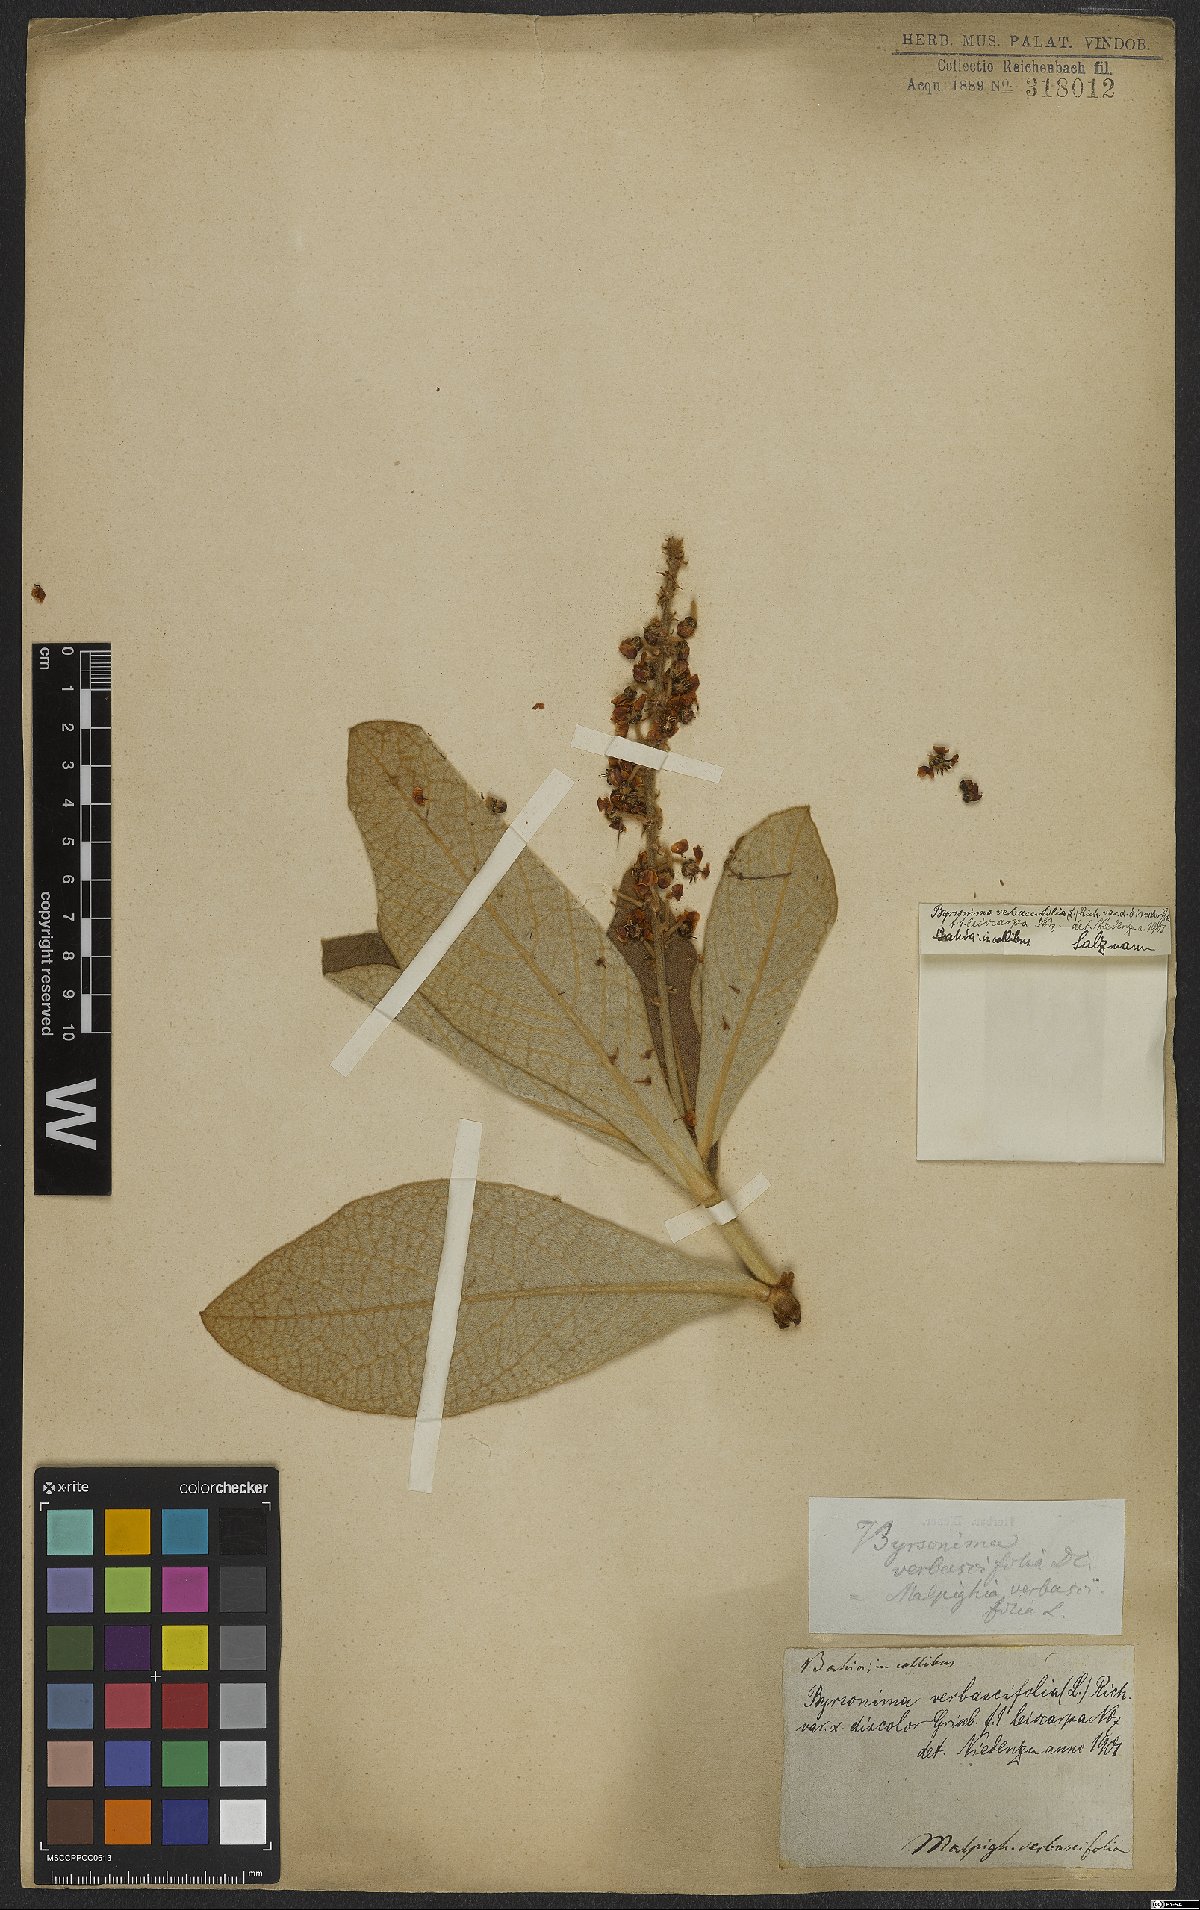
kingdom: Plantae
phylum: Tracheophyta
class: Magnoliopsida
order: Malpighiales
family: Malpighiaceae
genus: Byrsonima
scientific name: Byrsonima verbascifolia
